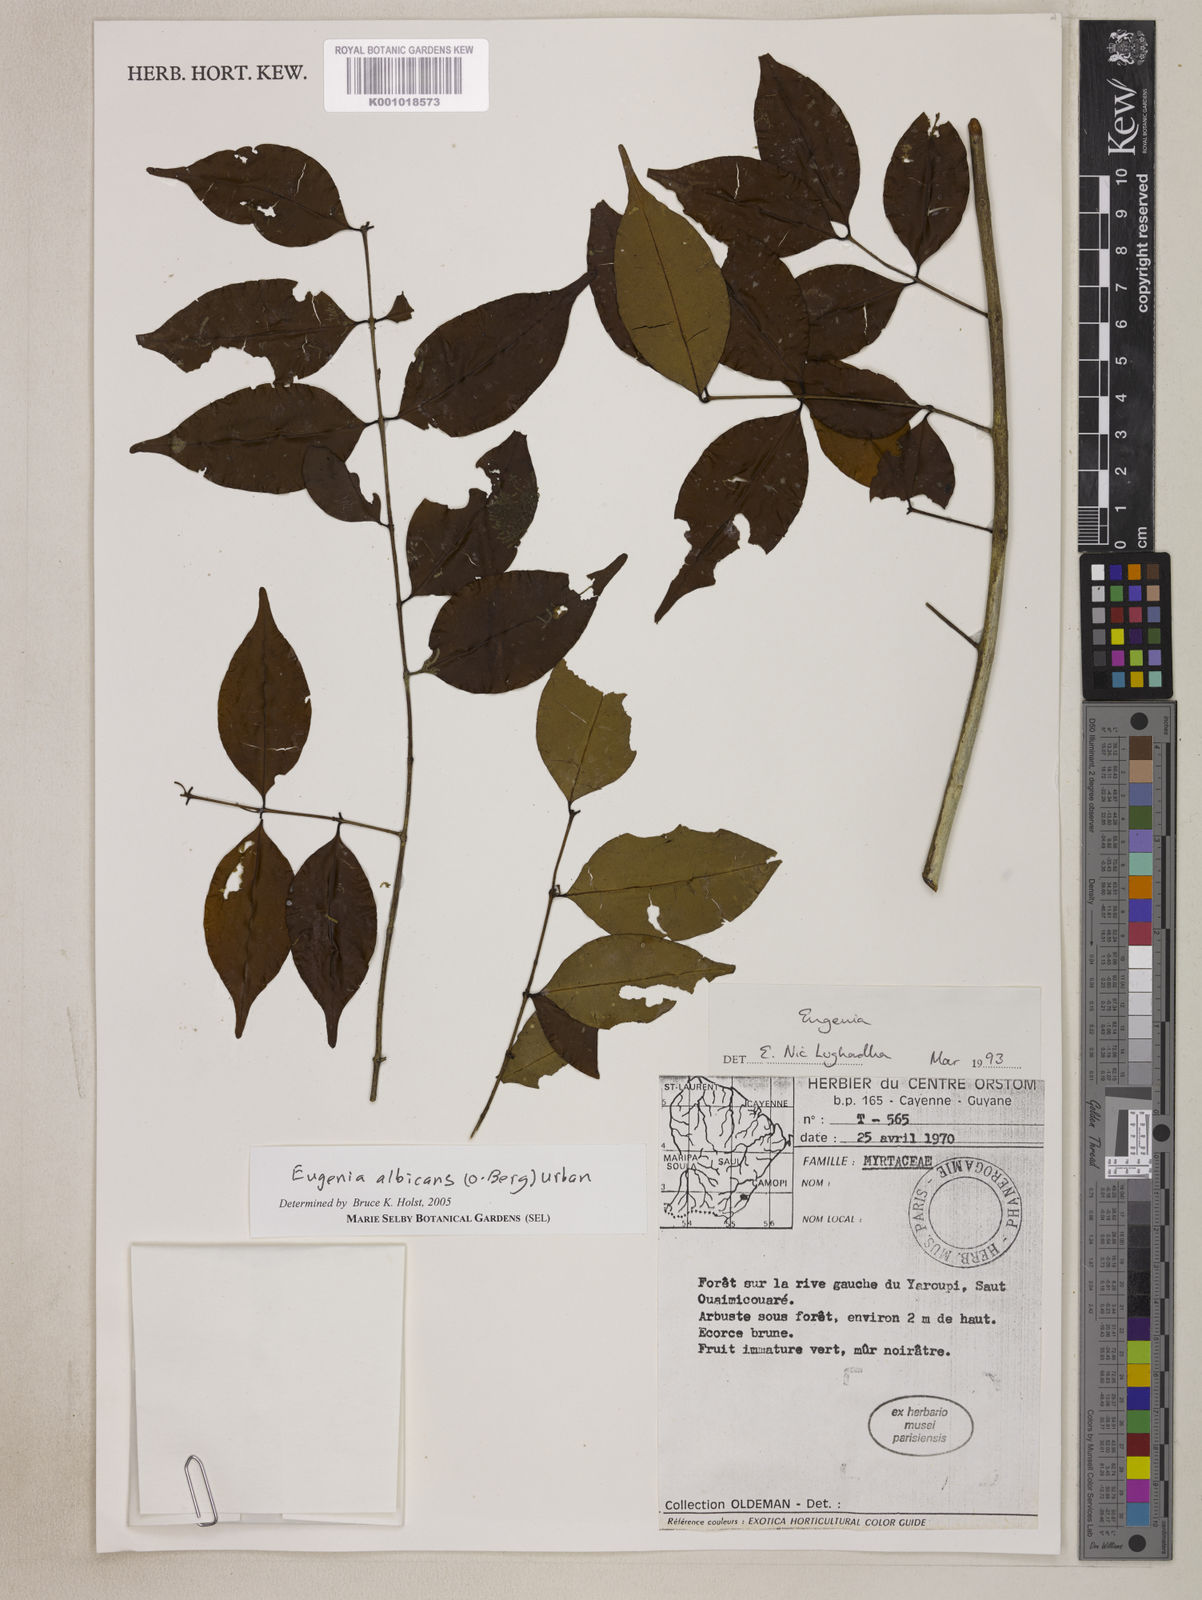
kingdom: Plantae
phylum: Tracheophyta
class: Magnoliopsida
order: Myrtales
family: Myrtaceae
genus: Eugenia
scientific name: Eugenia albicans
